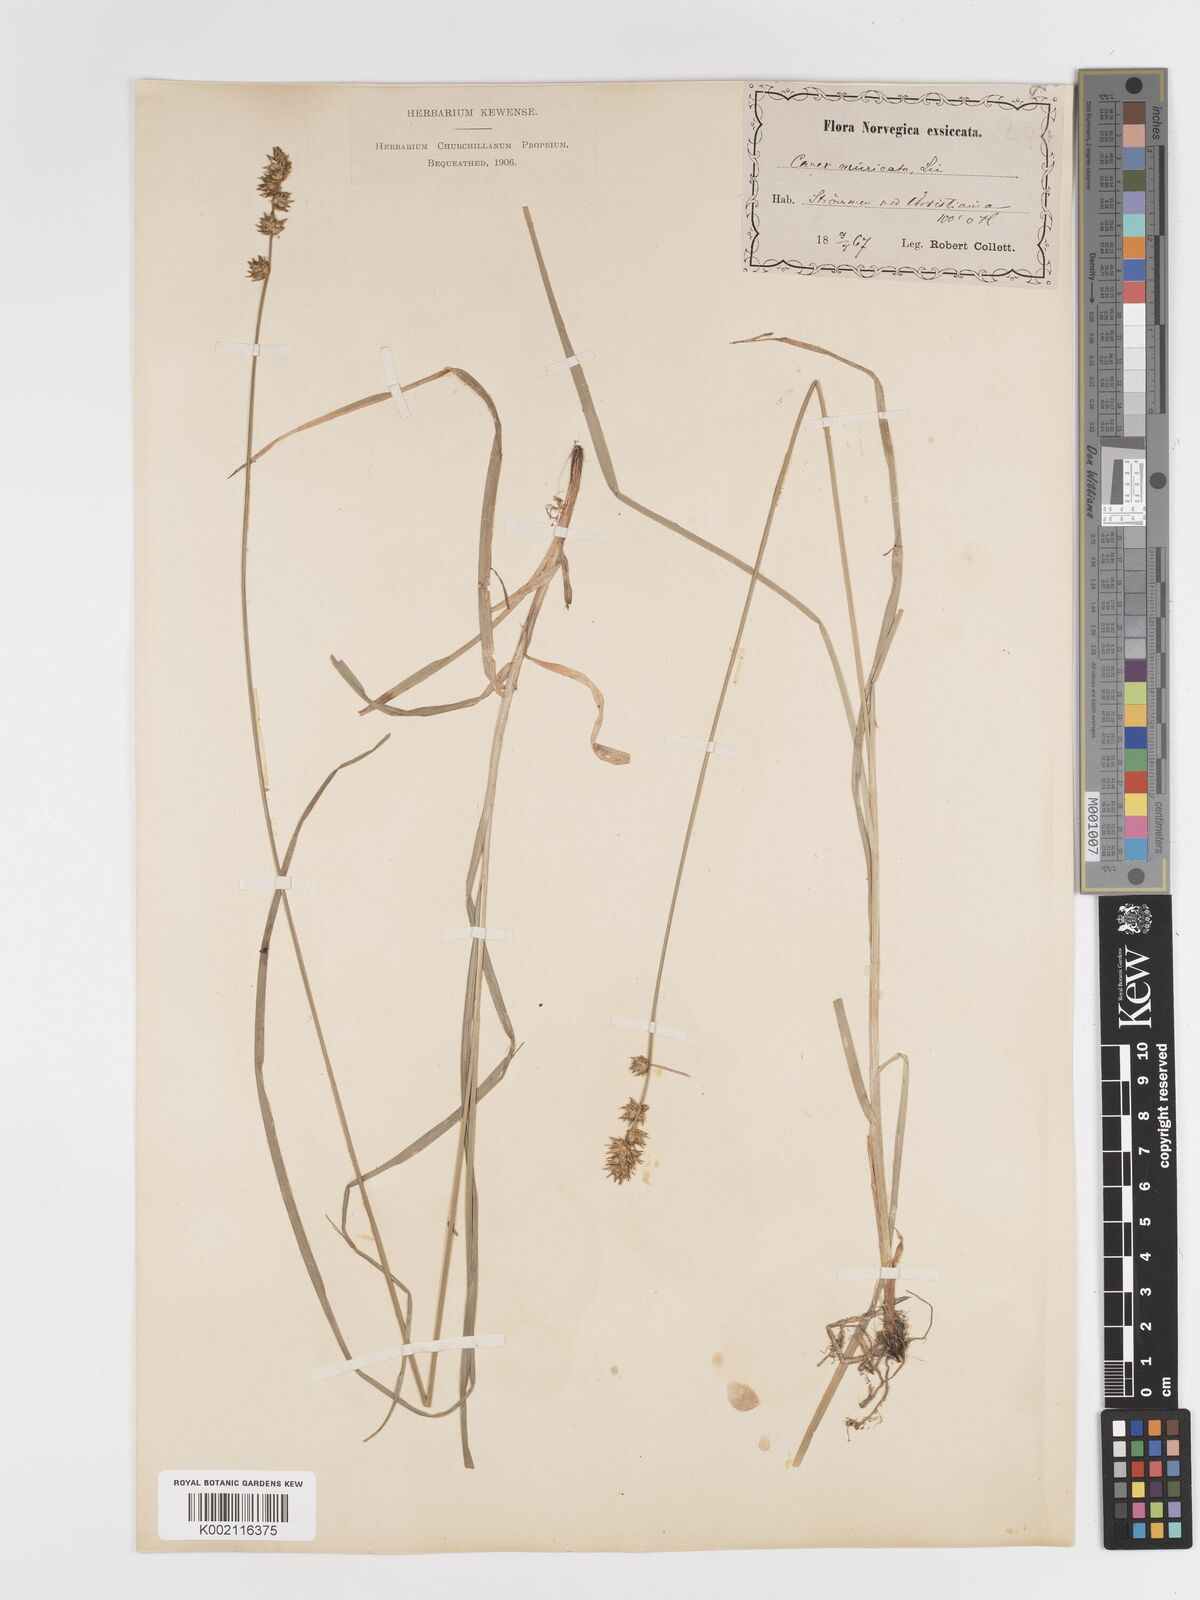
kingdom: Plantae
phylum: Tracheophyta
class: Liliopsida
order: Poales
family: Cyperaceae
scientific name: Cyperaceae
